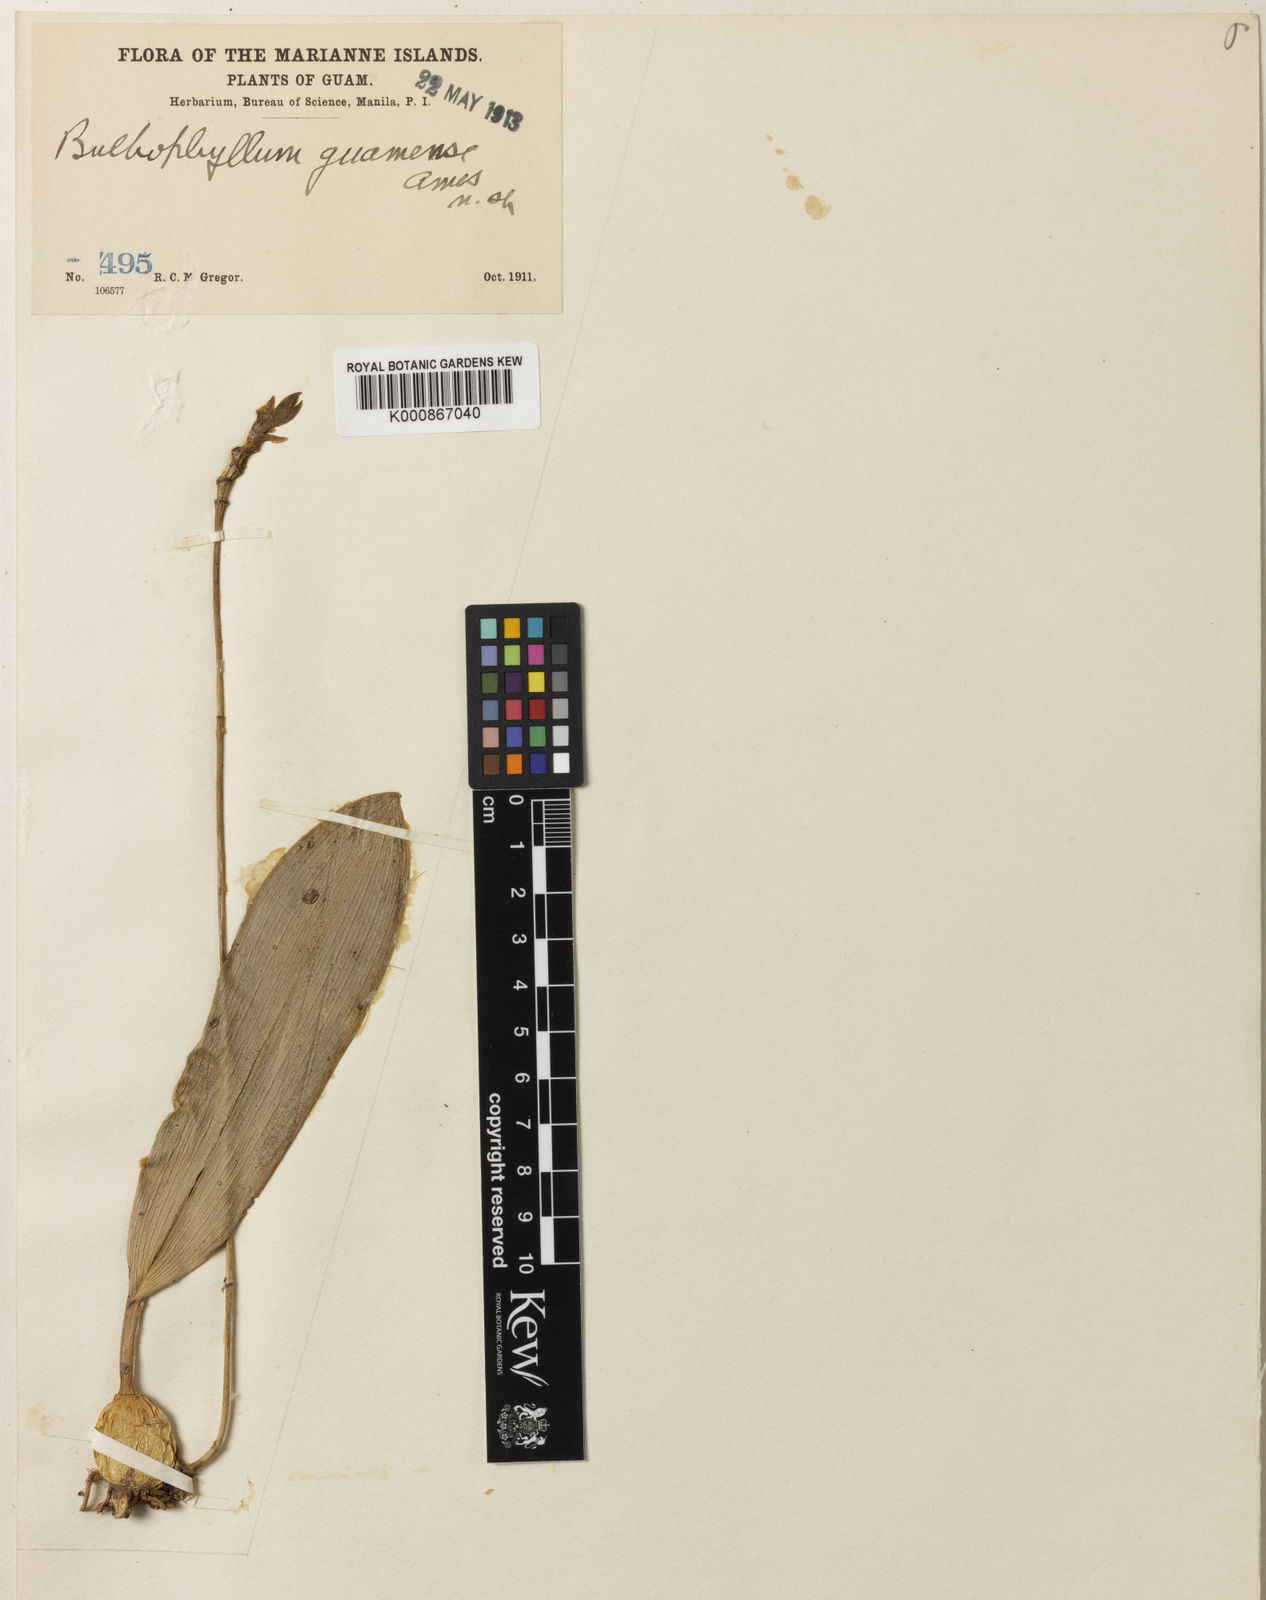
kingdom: Plantae
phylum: Tracheophyta
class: Liliopsida
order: Asparagales
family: Orchidaceae
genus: Bulbophyllum
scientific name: Bulbophyllum guamense
